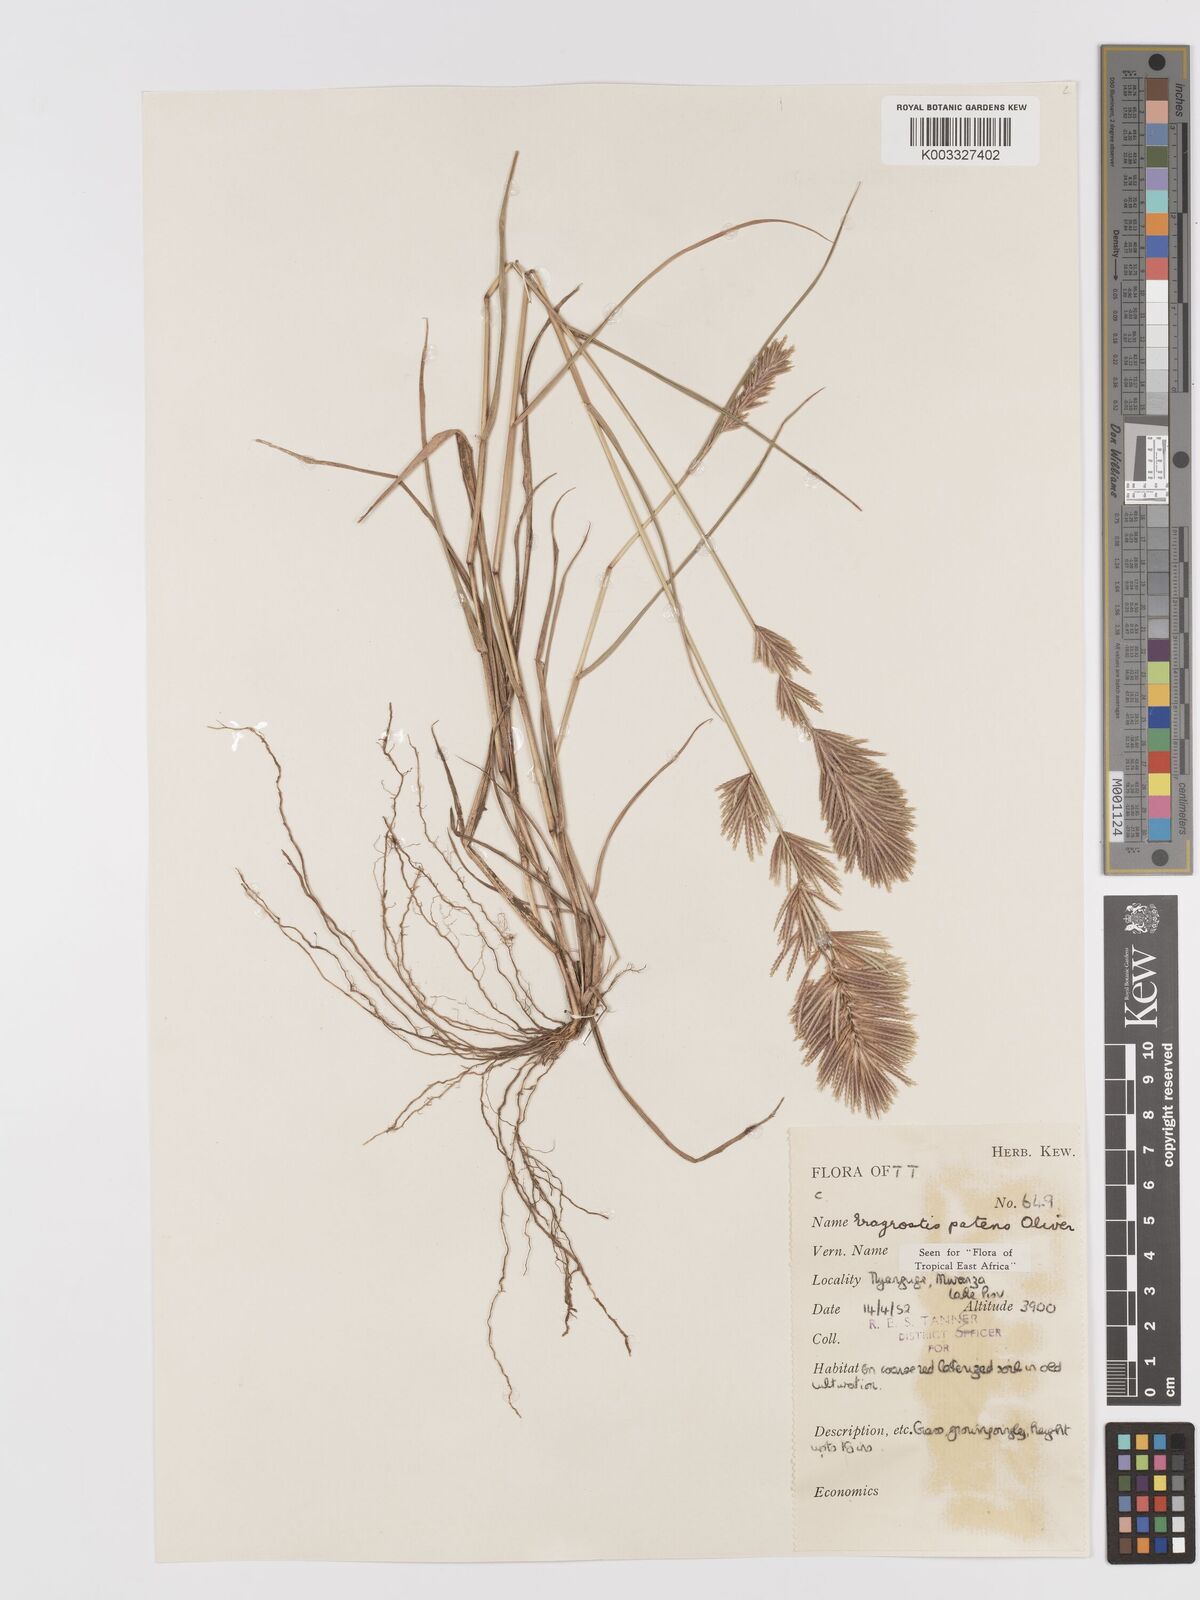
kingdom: Plantae
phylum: Tracheophyta
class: Liliopsida
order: Poales
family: Poaceae
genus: Eragrostis
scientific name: Eragrostis patens
